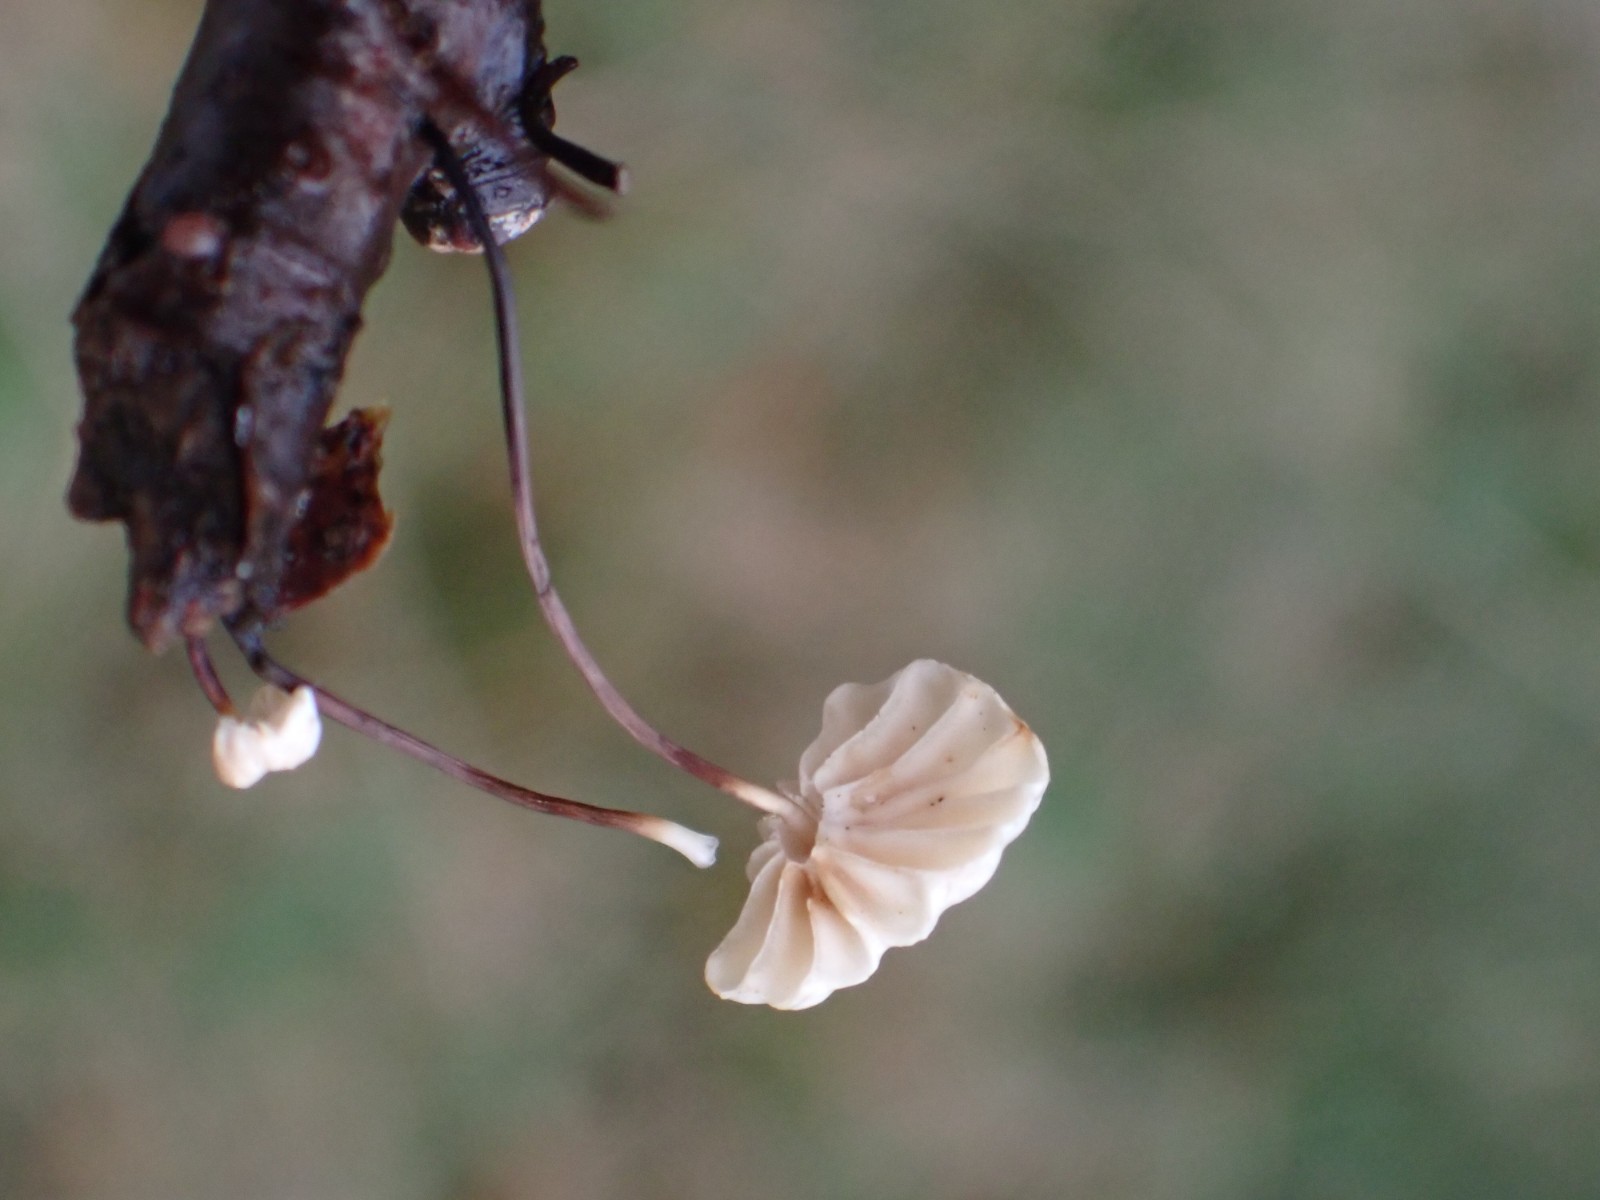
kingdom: Fungi
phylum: Basidiomycota
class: Agaricomycetes
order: Agaricales
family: Marasmiaceae
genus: Marasmius
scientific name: Marasmius rotula
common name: hjul-bruskhat
